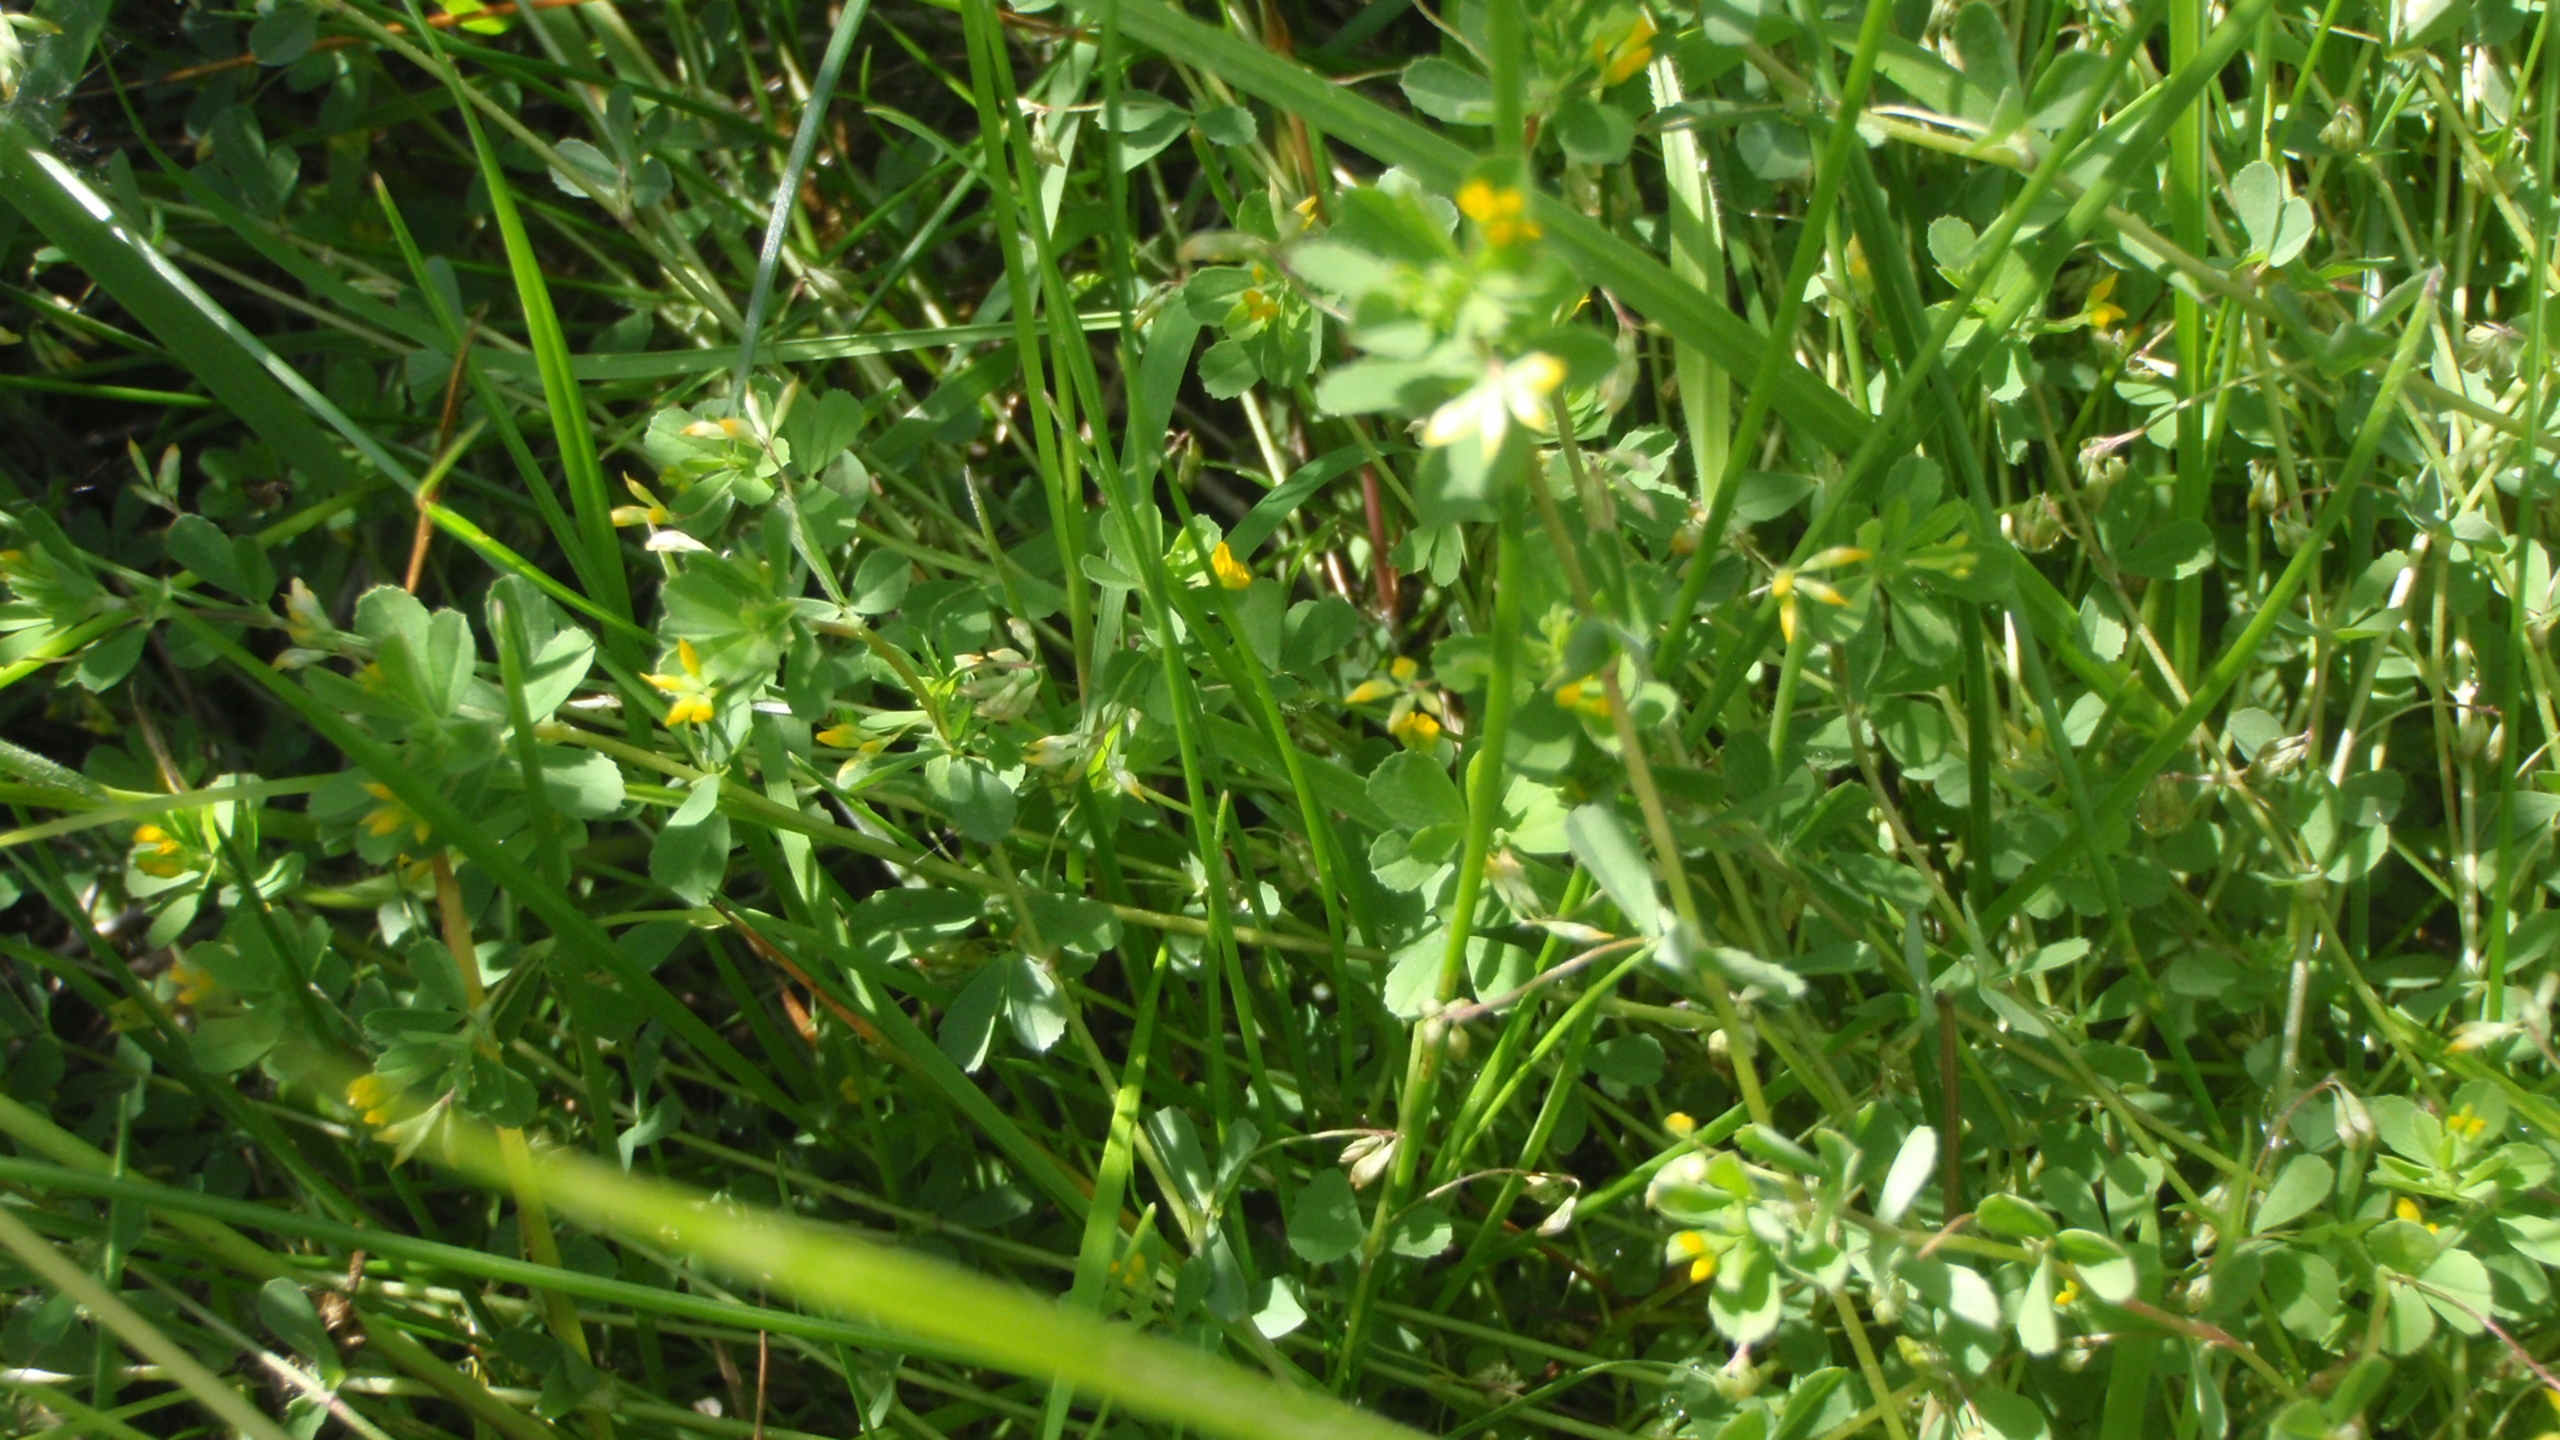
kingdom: Plantae
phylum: Tracheophyta
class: Magnoliopsida
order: Fabales
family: Fabaceae
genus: Trifolium
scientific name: Trifolium micranthum
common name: Spæd kløver
